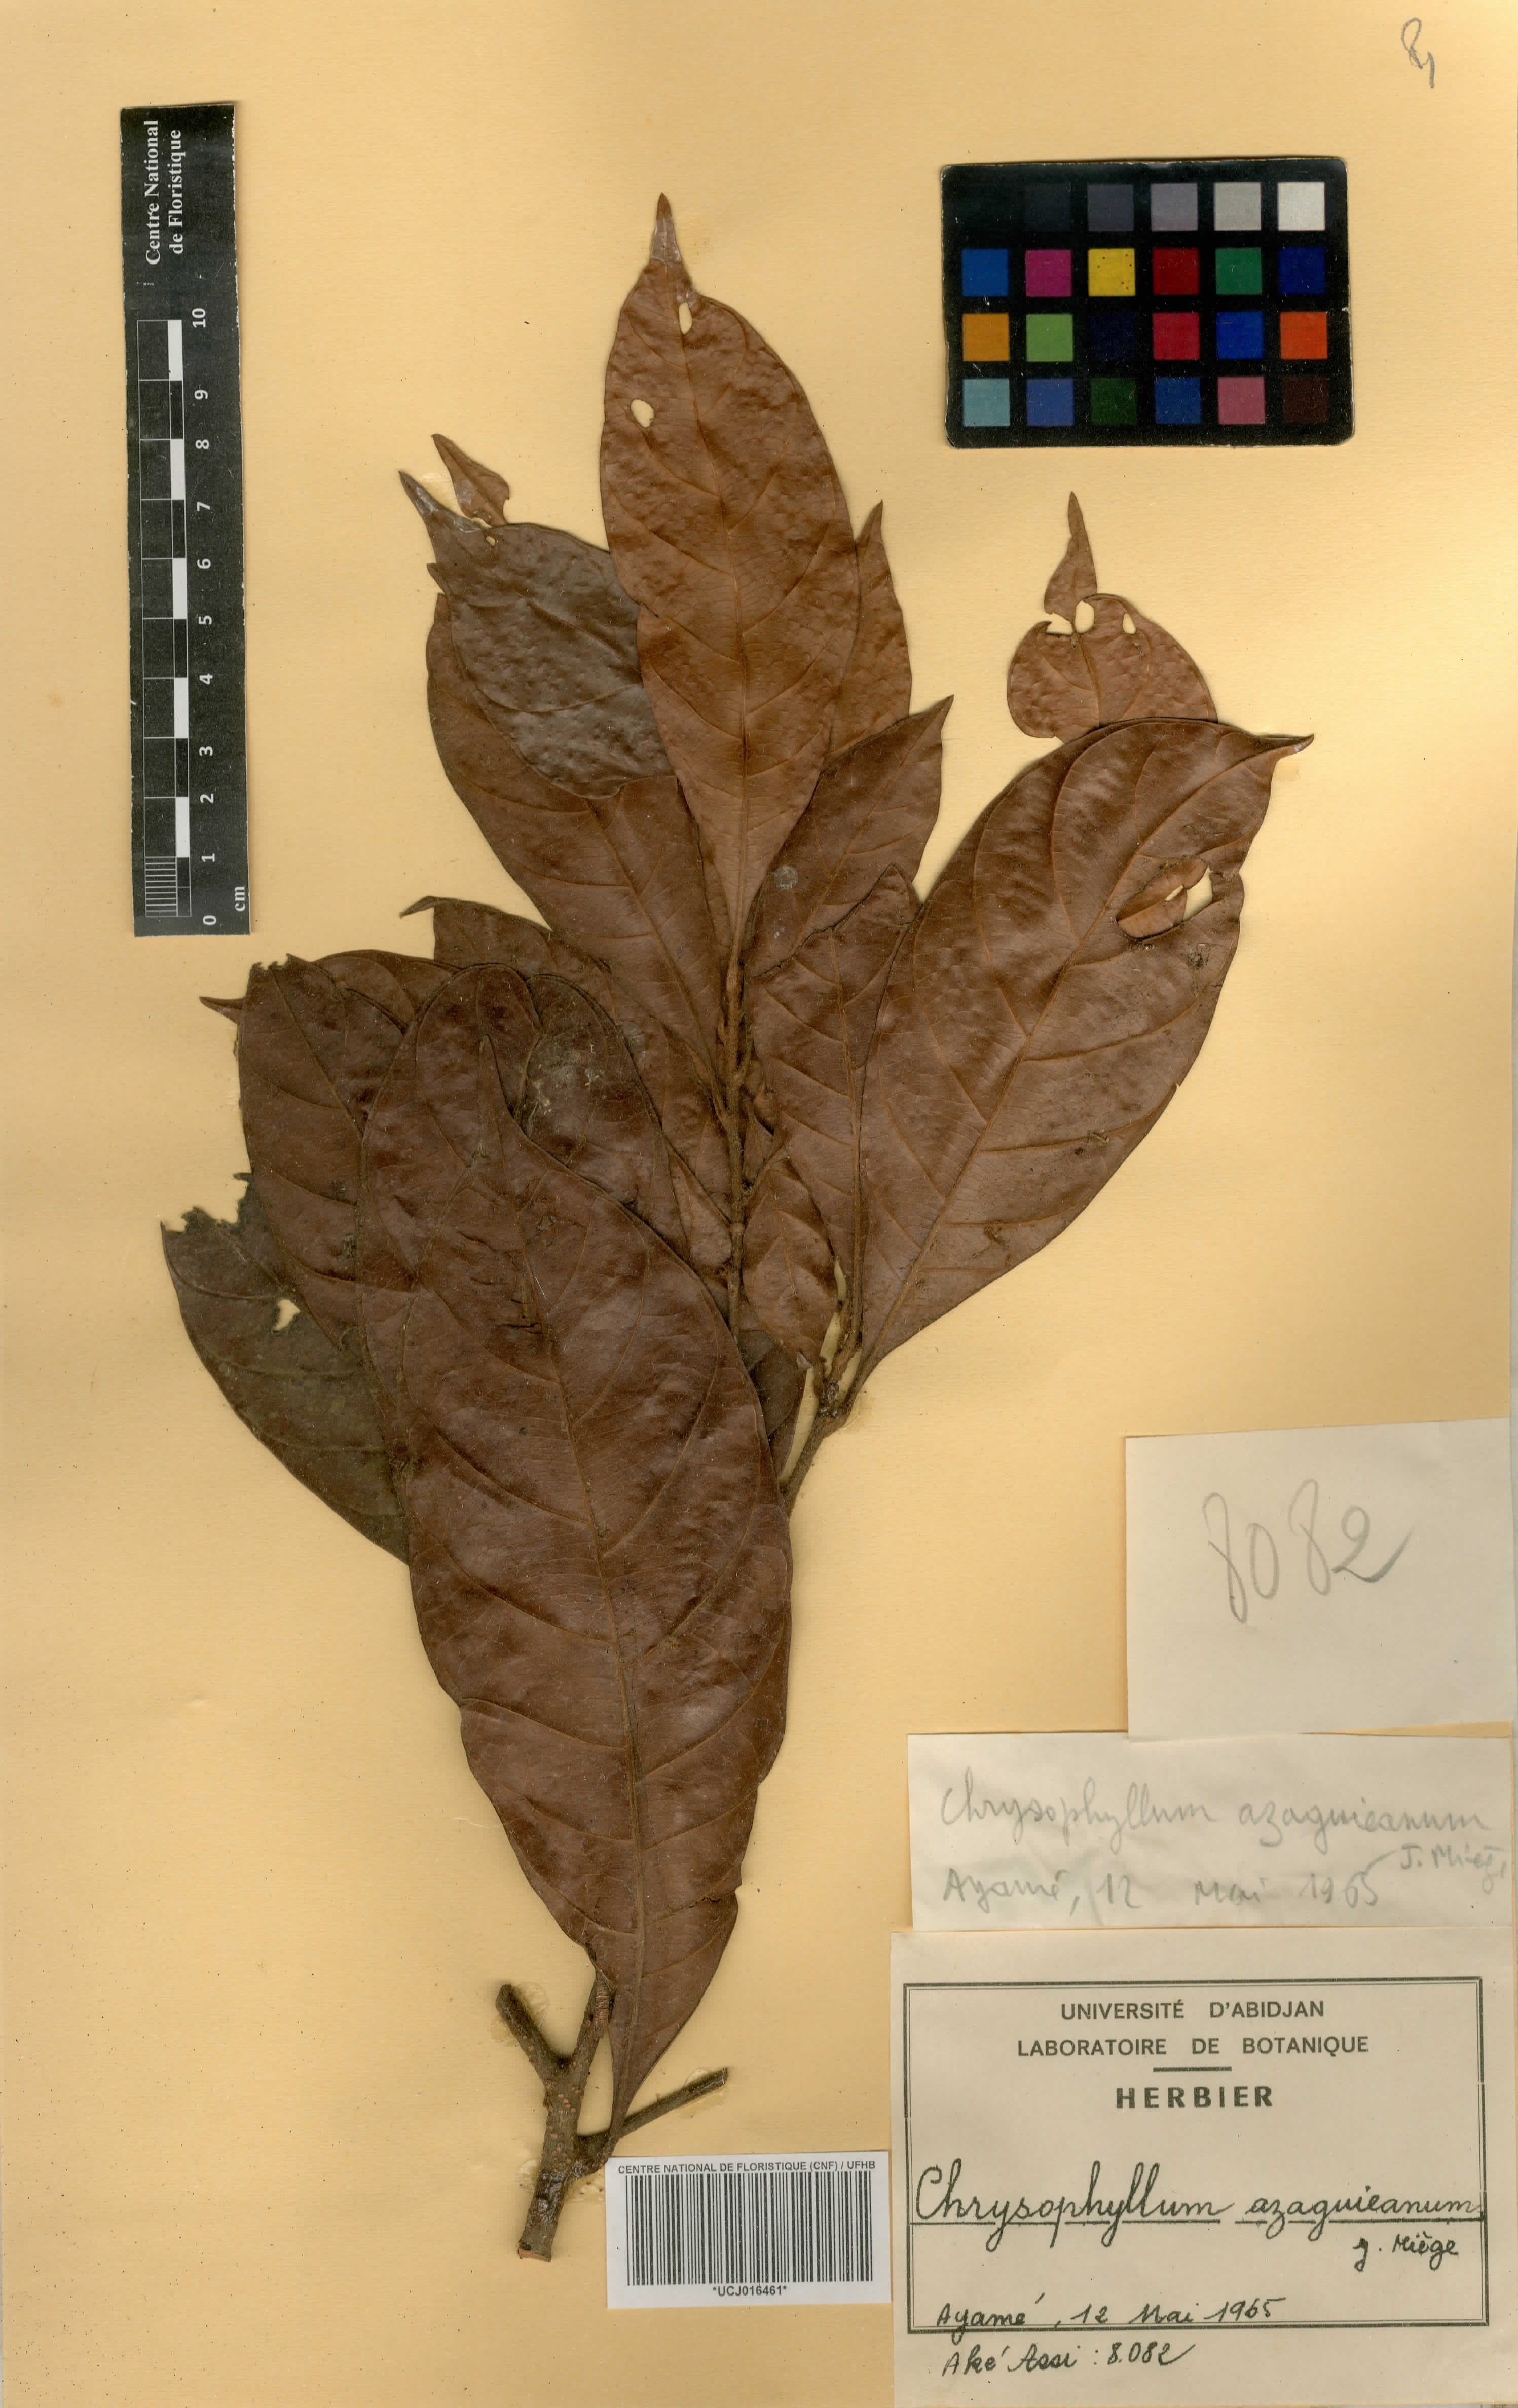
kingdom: Plantae
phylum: Tracheophyta
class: Magnoliopsida
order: Ericales
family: Sapotaceae
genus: Gambeya
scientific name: Gambeya azaguieana
